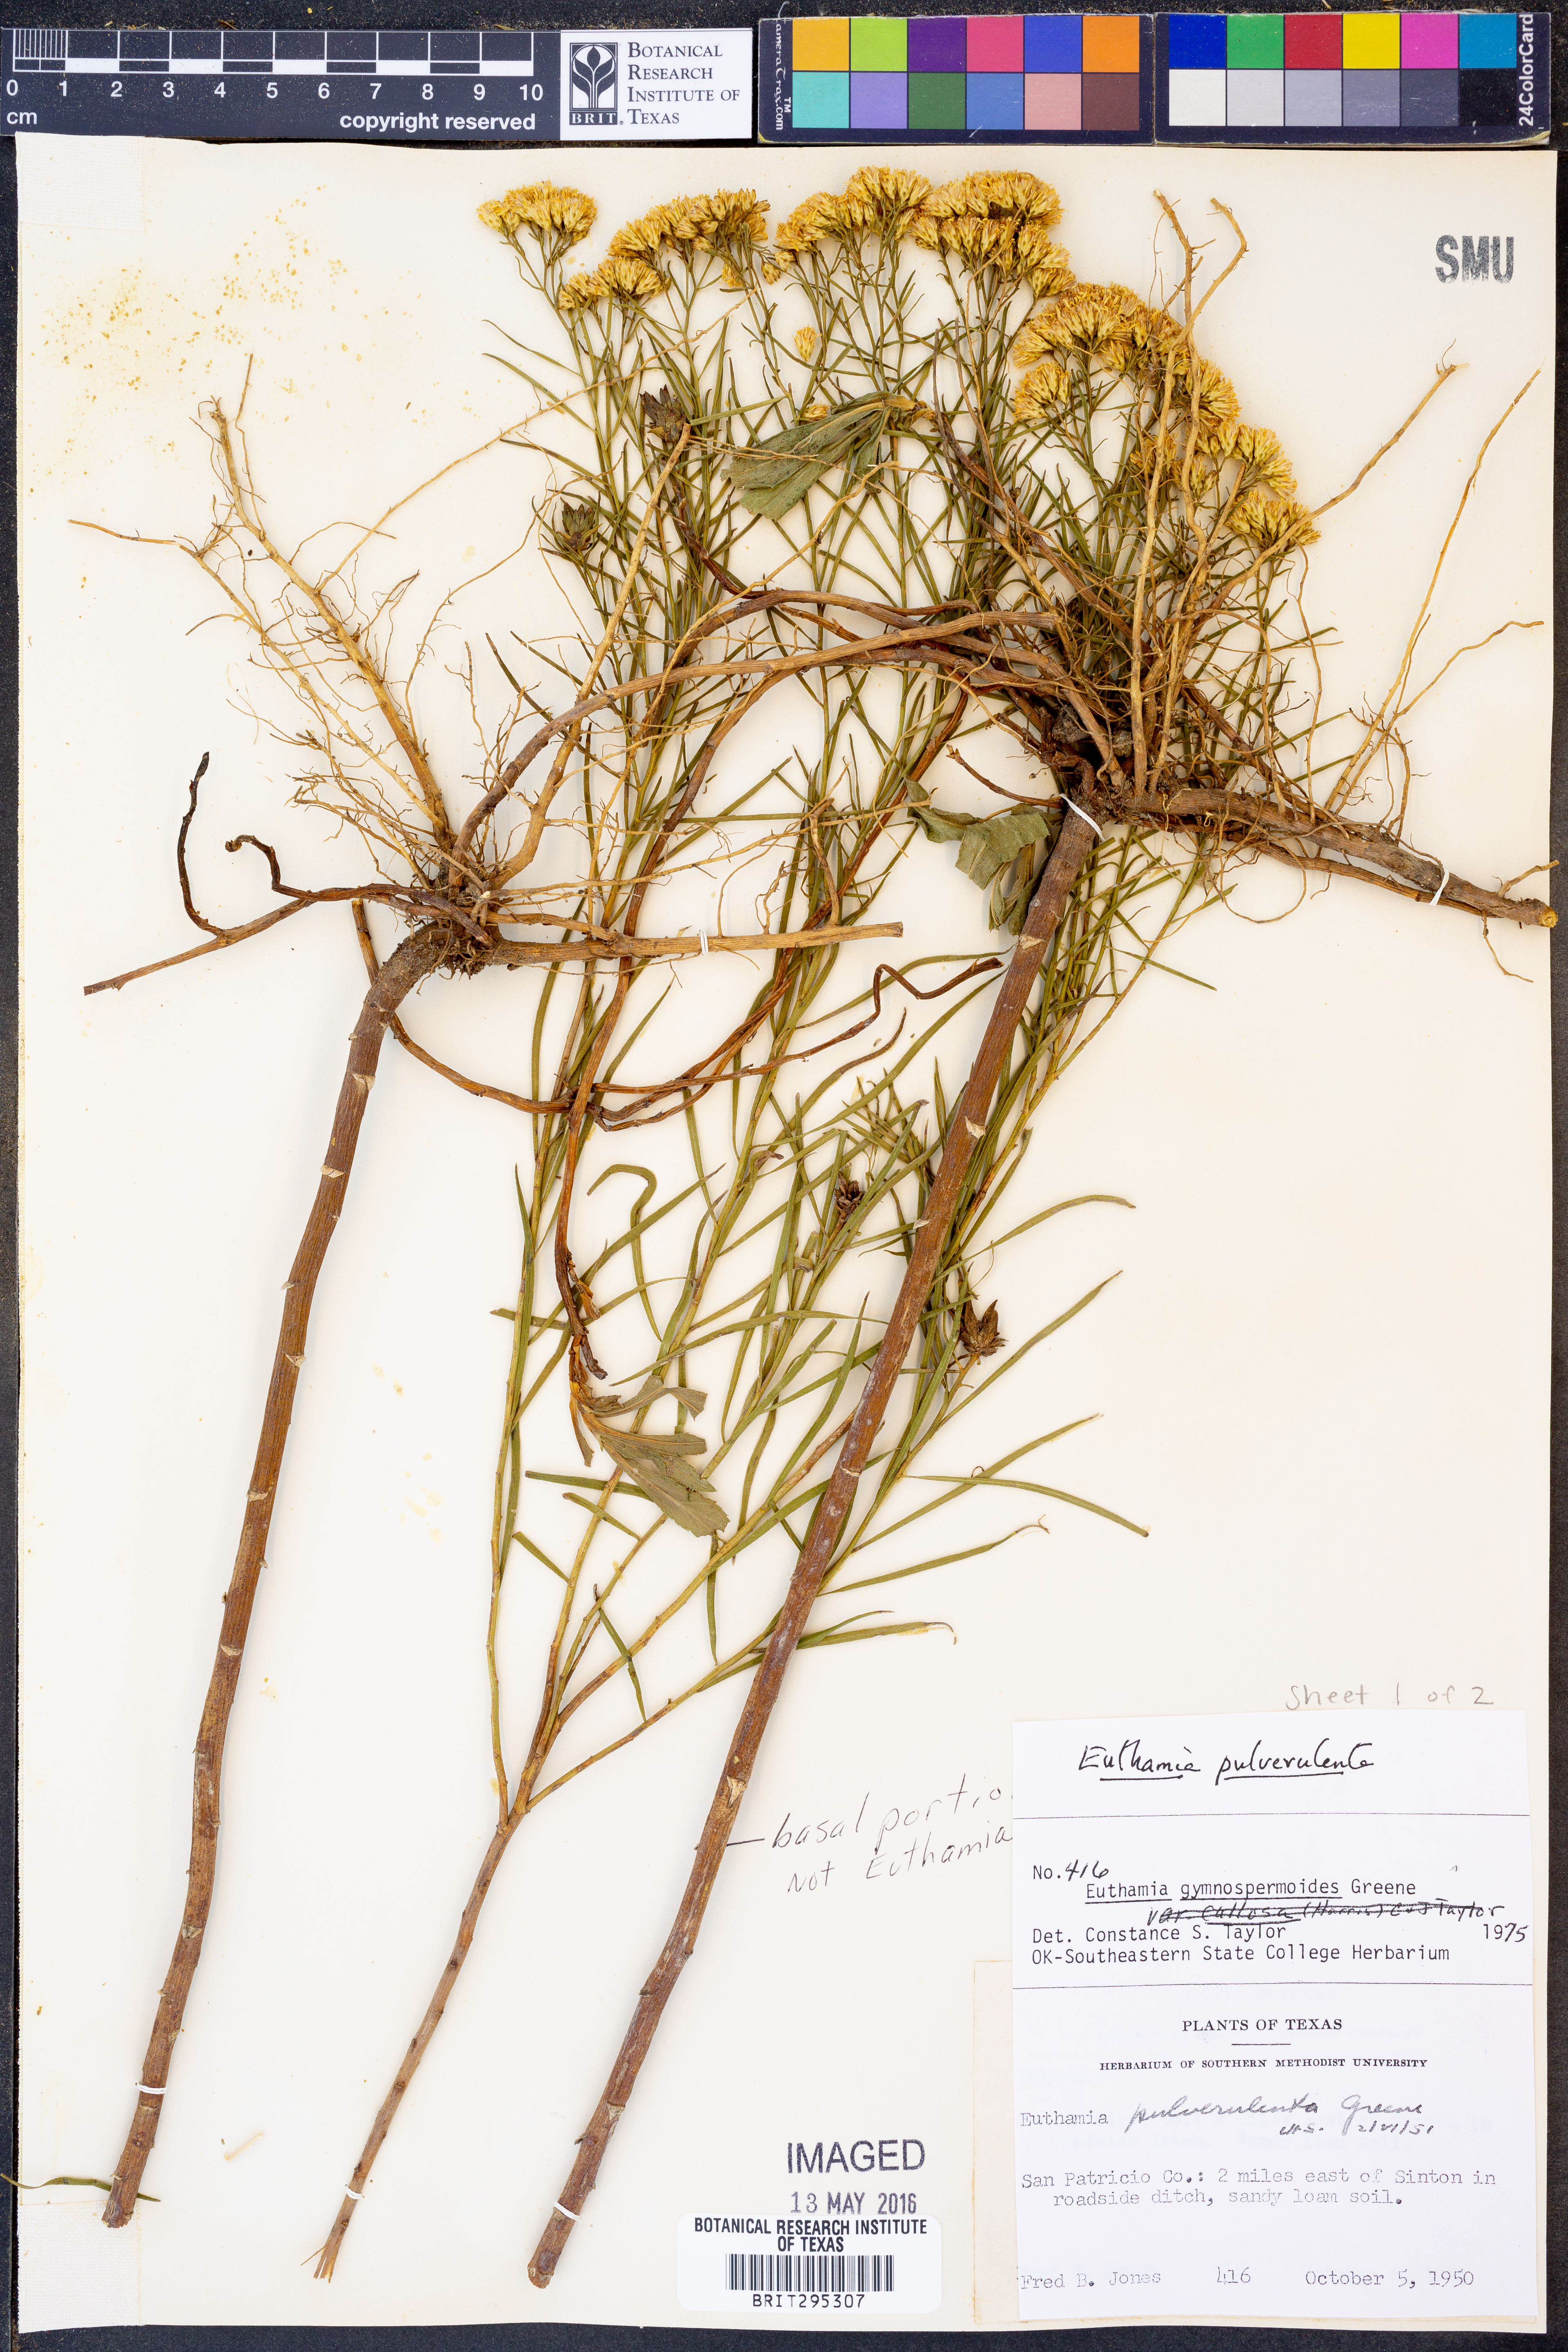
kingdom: Plantae
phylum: Tracheophyta
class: Magnoliopsida
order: Asterales
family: Asteraceae
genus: Euthamia
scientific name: Euthamia pulverulenta
